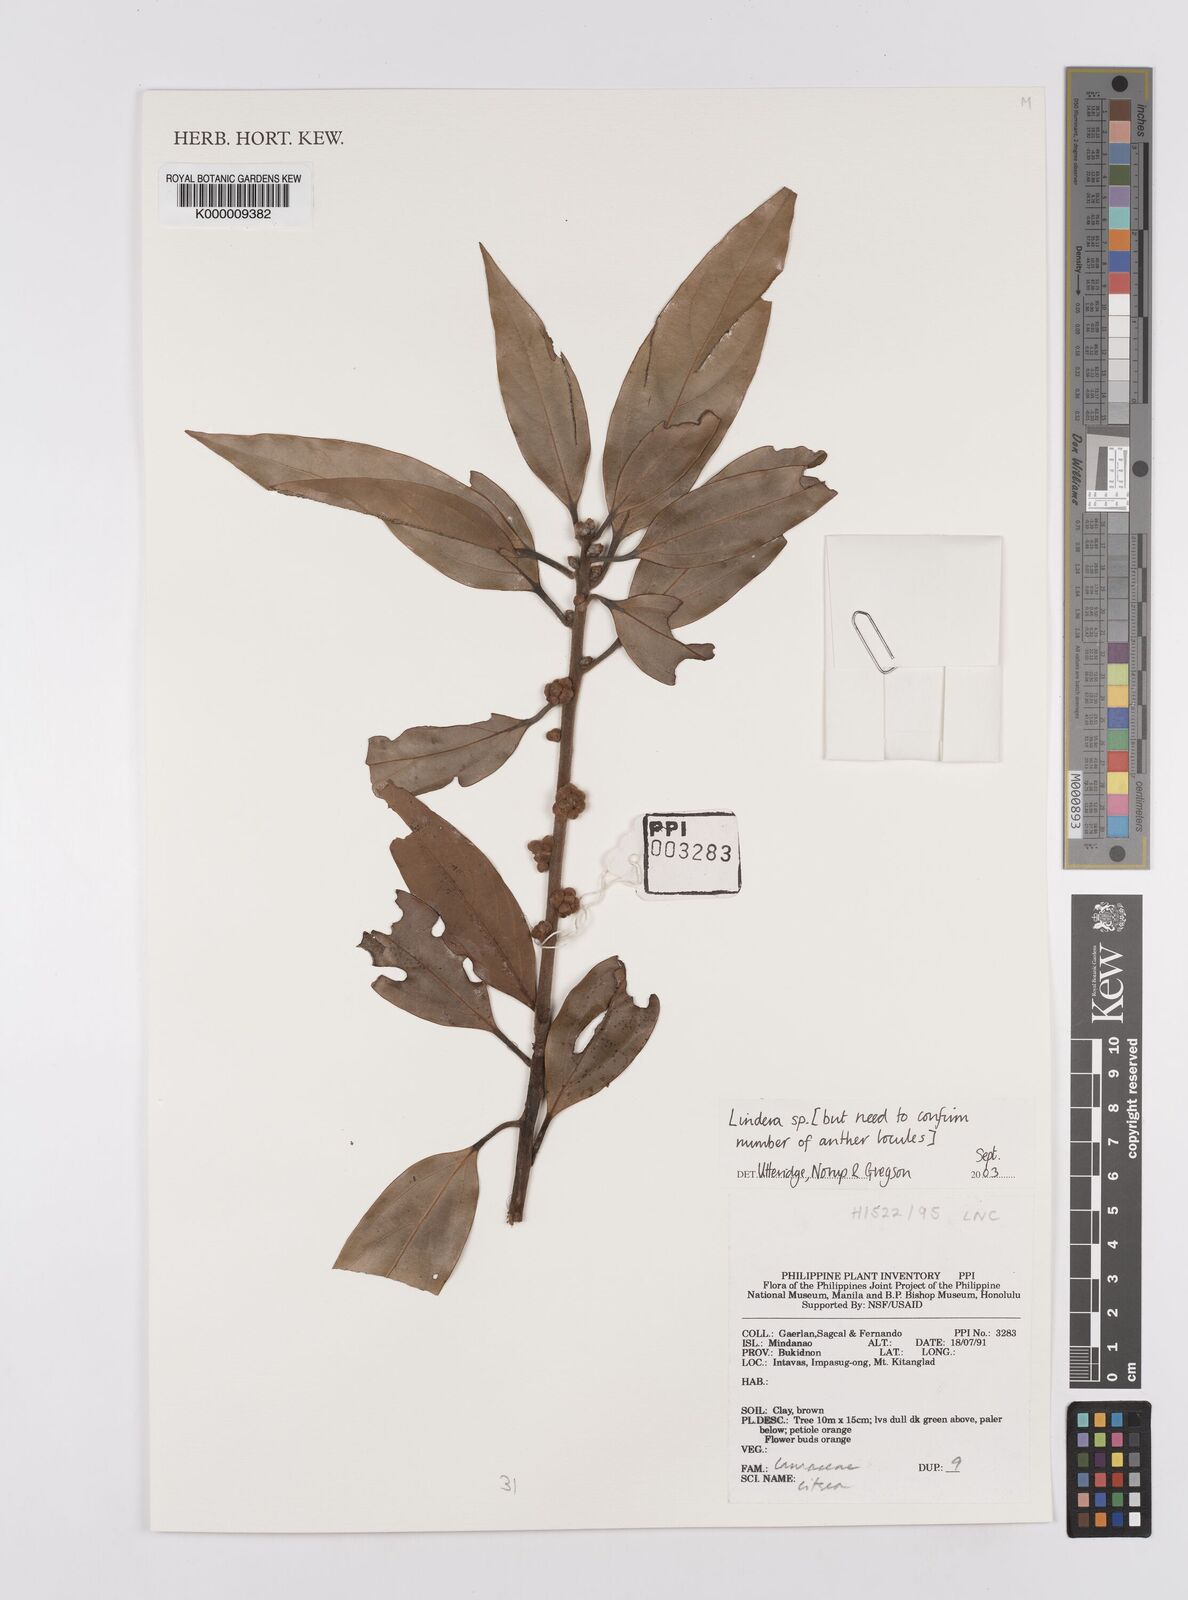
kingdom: Plantae
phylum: Tracheophyta
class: Magnoliopsida
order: Laurales
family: Lauraceae
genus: Lindera
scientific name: Lindera
